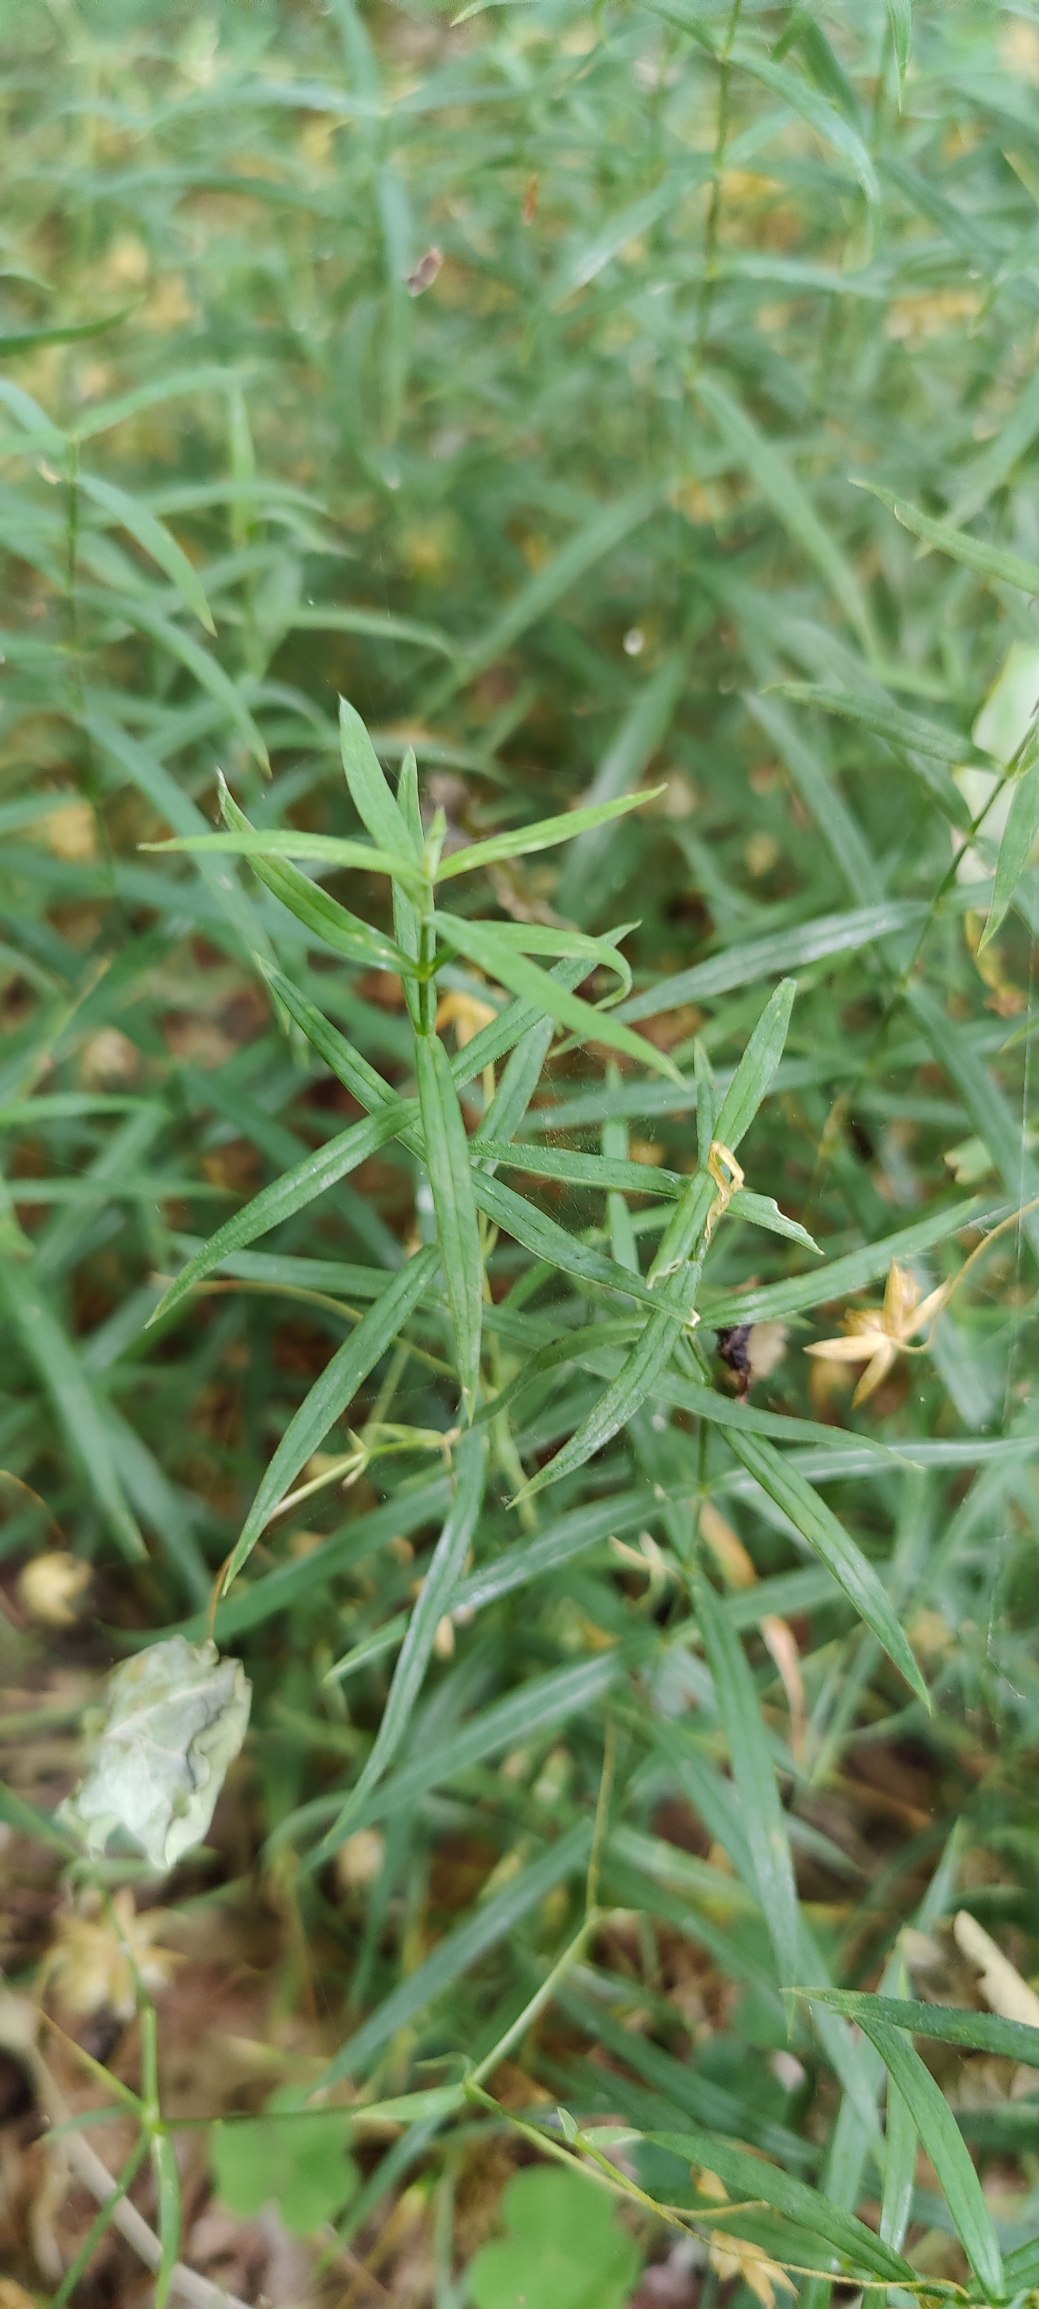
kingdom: Plantae
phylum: Tracheophyta
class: Magnoliopsida
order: Caryophyllales
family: Caryophyllaceae
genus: Rabelera
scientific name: Rabelera holostea
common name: Stor fladstjerne
